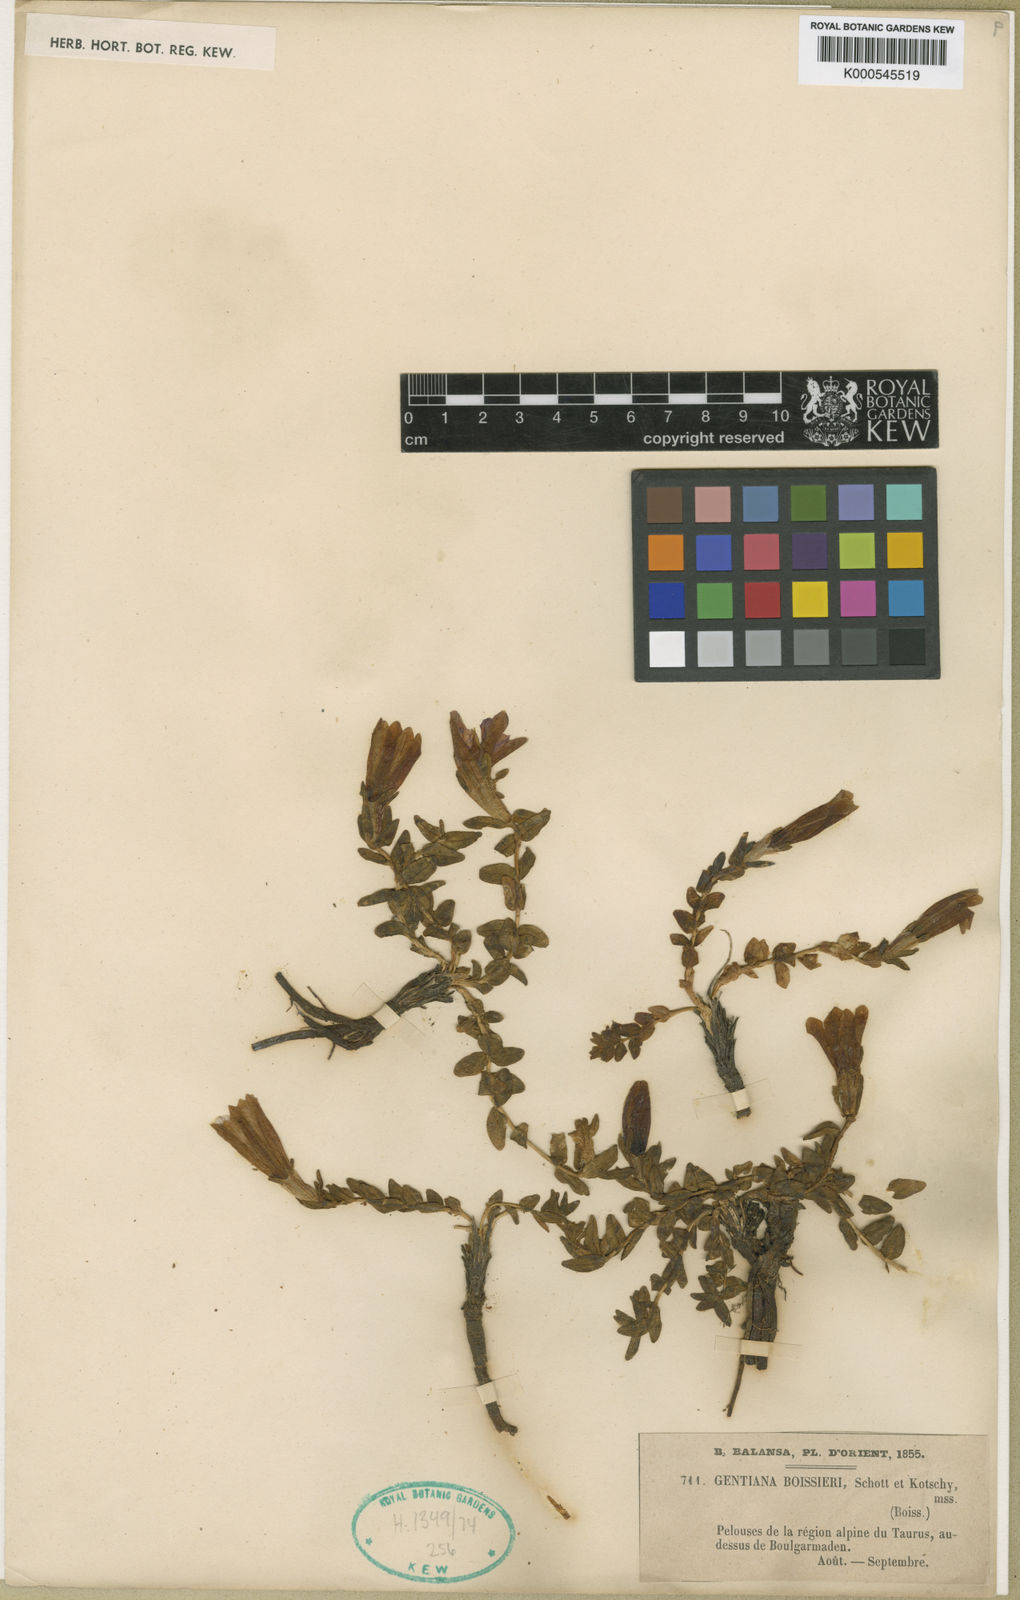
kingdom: Plantae
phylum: Tracheophyta
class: Magnoliopsida
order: Gentianales
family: Gentianaceae
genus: Gentiana
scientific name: Gentiana boissieri
